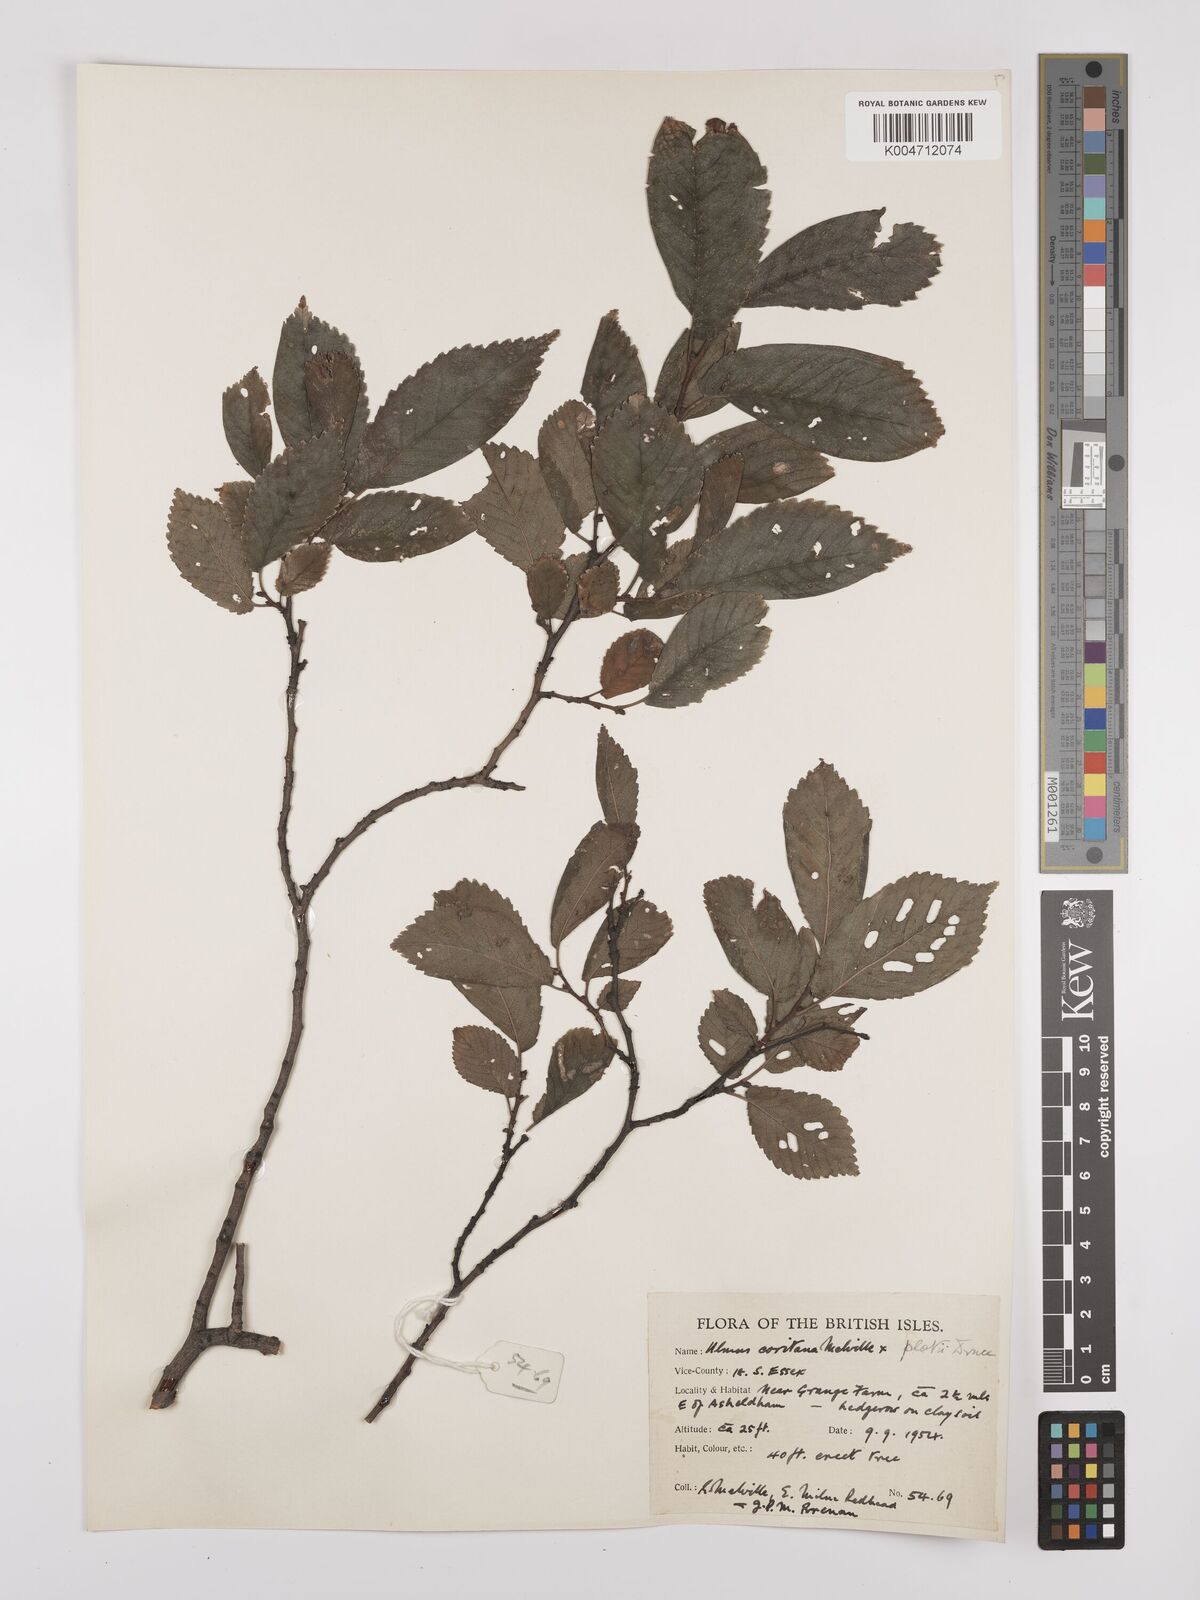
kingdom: Plantae
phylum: Tracheophyta
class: Magnoliopsida
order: Rosales
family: Ulmaceae
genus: Ulmus
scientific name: Ulmus minor
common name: Small-leaved elm
